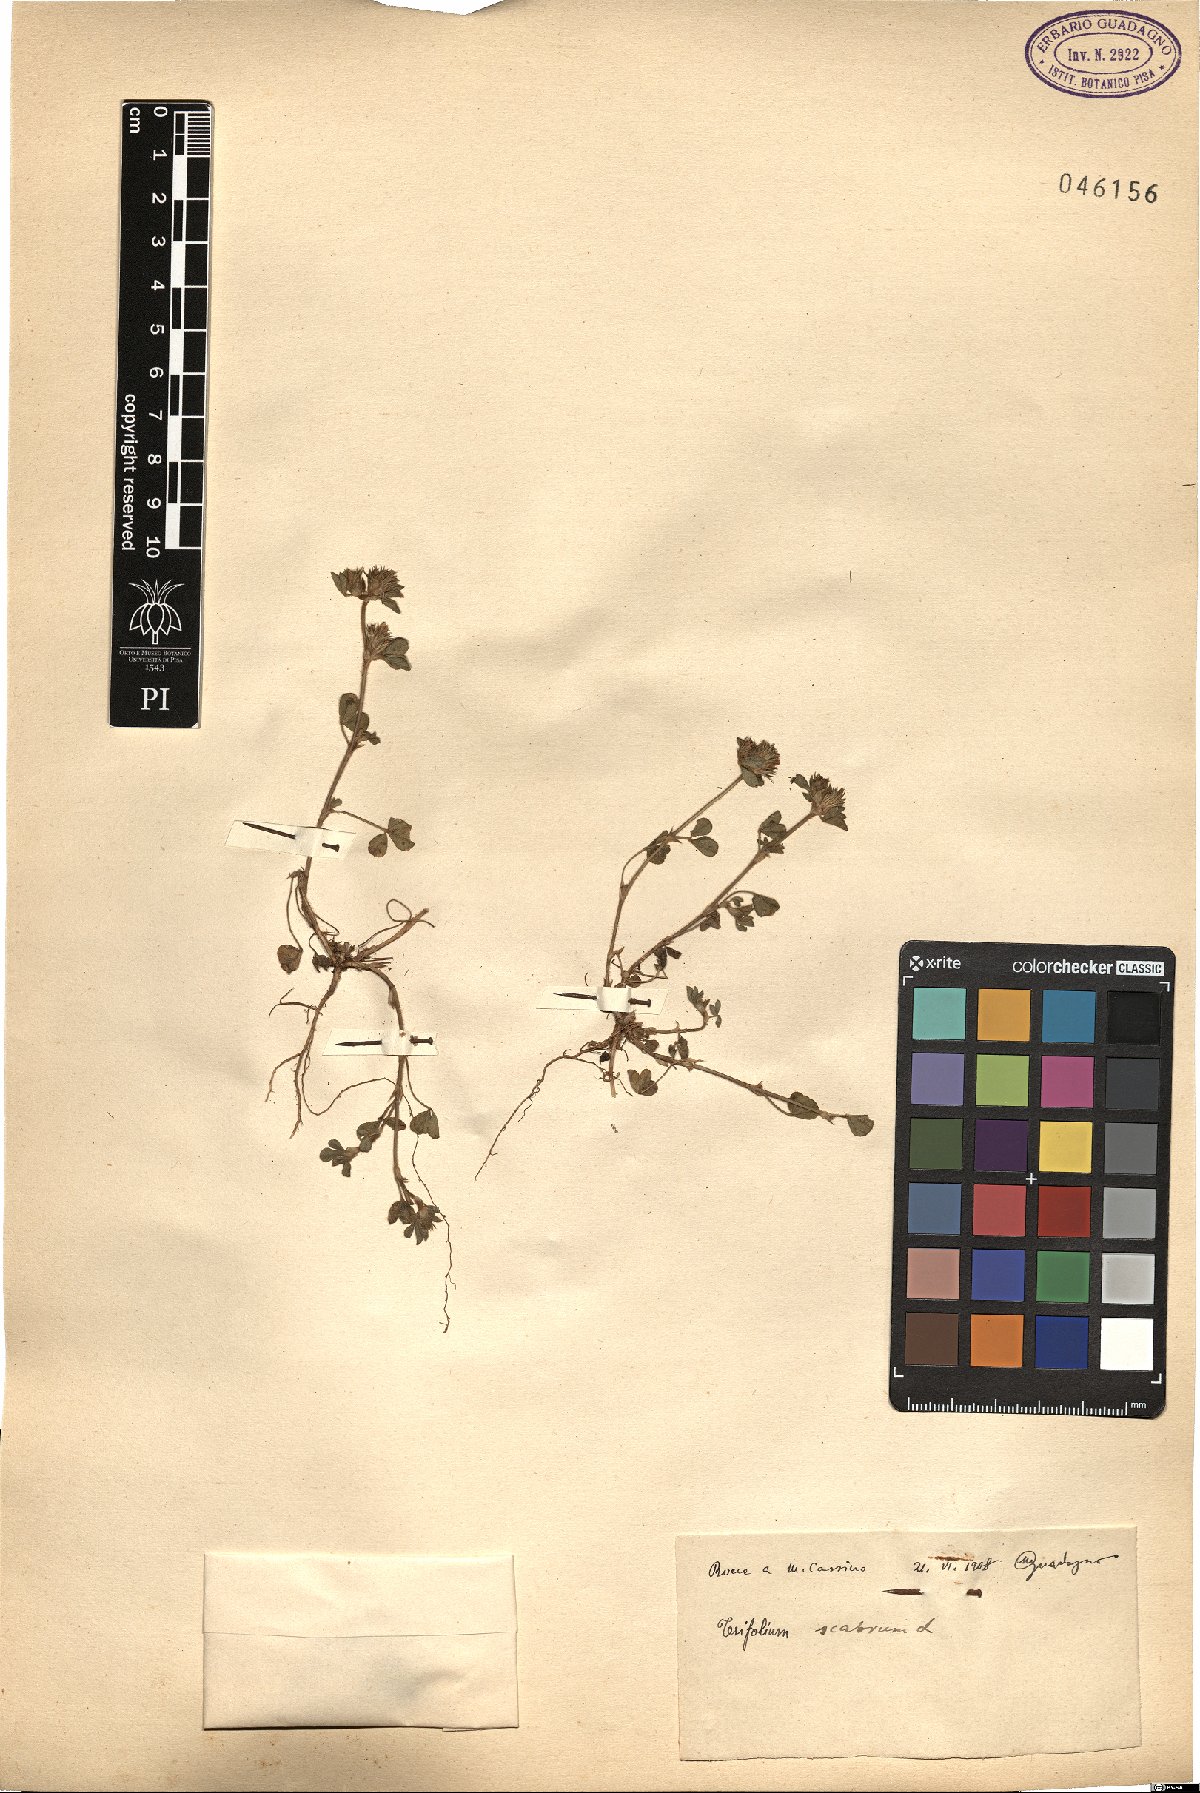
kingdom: Plantae
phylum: Tracheophyta
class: Magnoliopsida
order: Fabales
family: Fabaceae
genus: Trifolium
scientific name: Trifolium scabrum
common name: Rough clover
